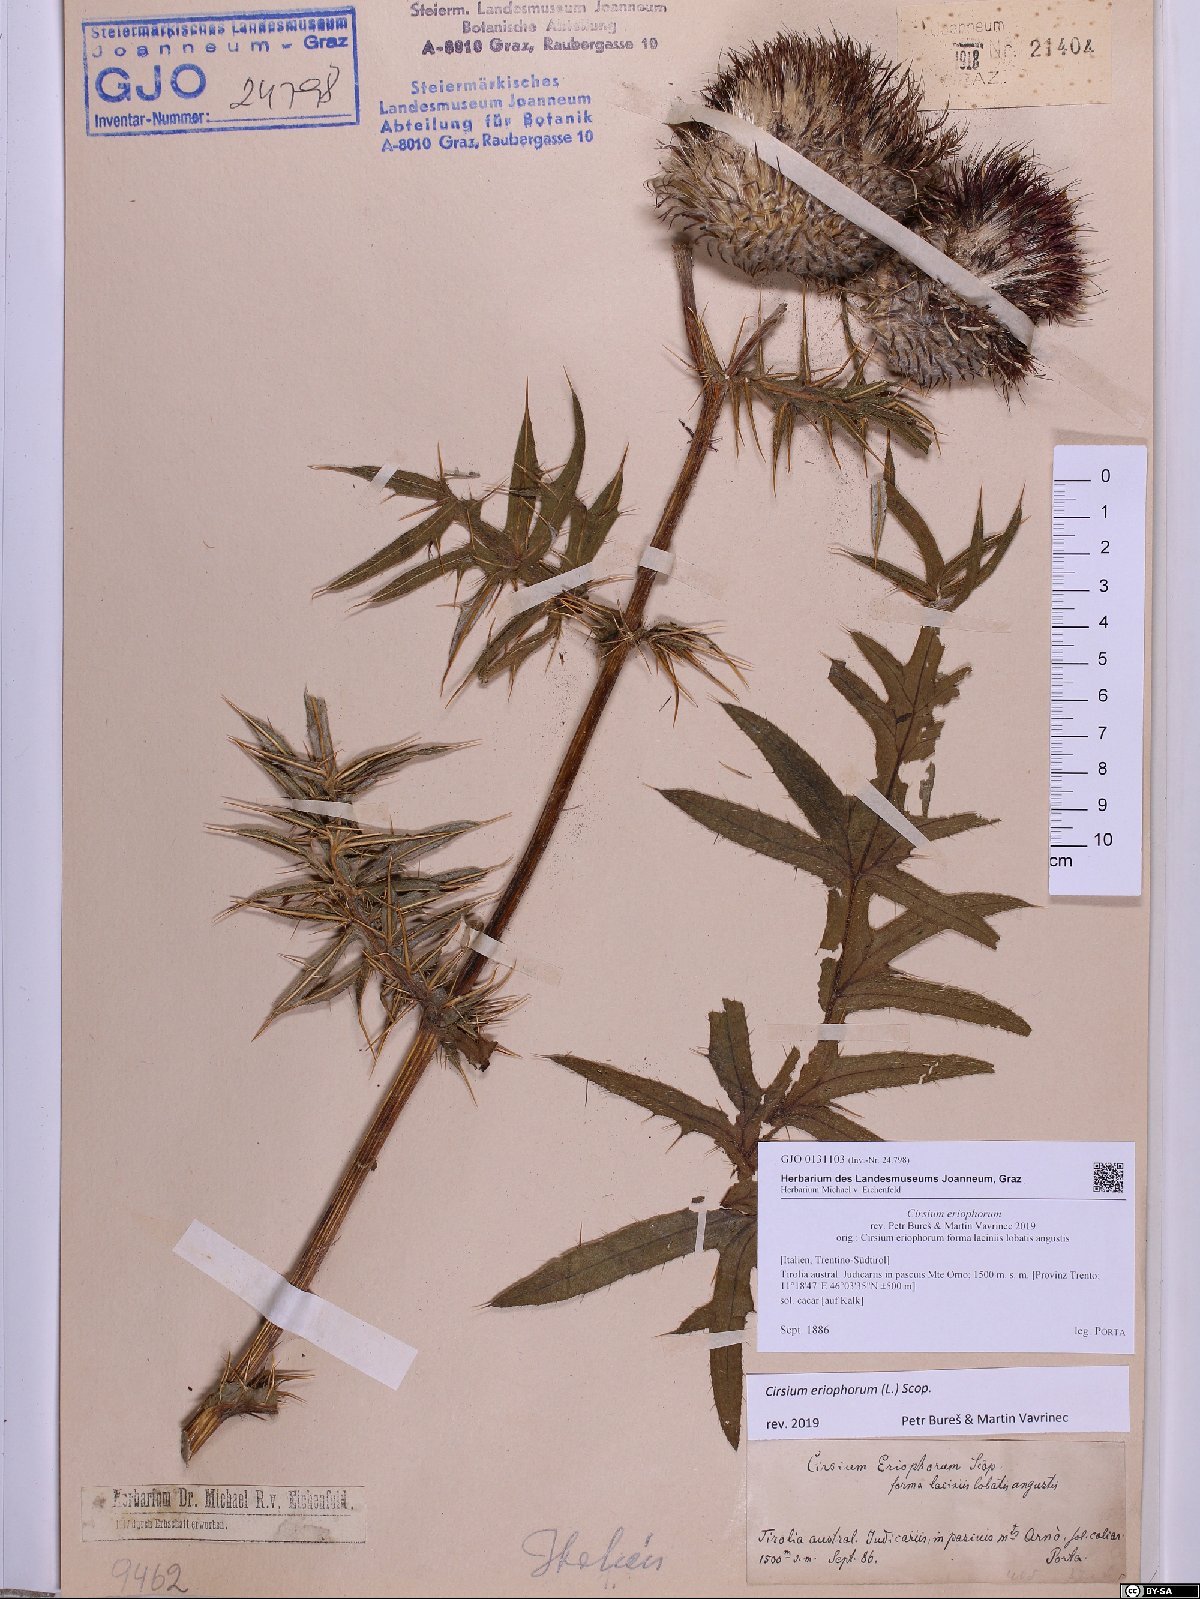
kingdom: Plantae
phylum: Tracheophyta
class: Magnoliopsida
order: Asterales
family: Asteraceae
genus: Lophiolepis
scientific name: Lophiolepis eriophora
